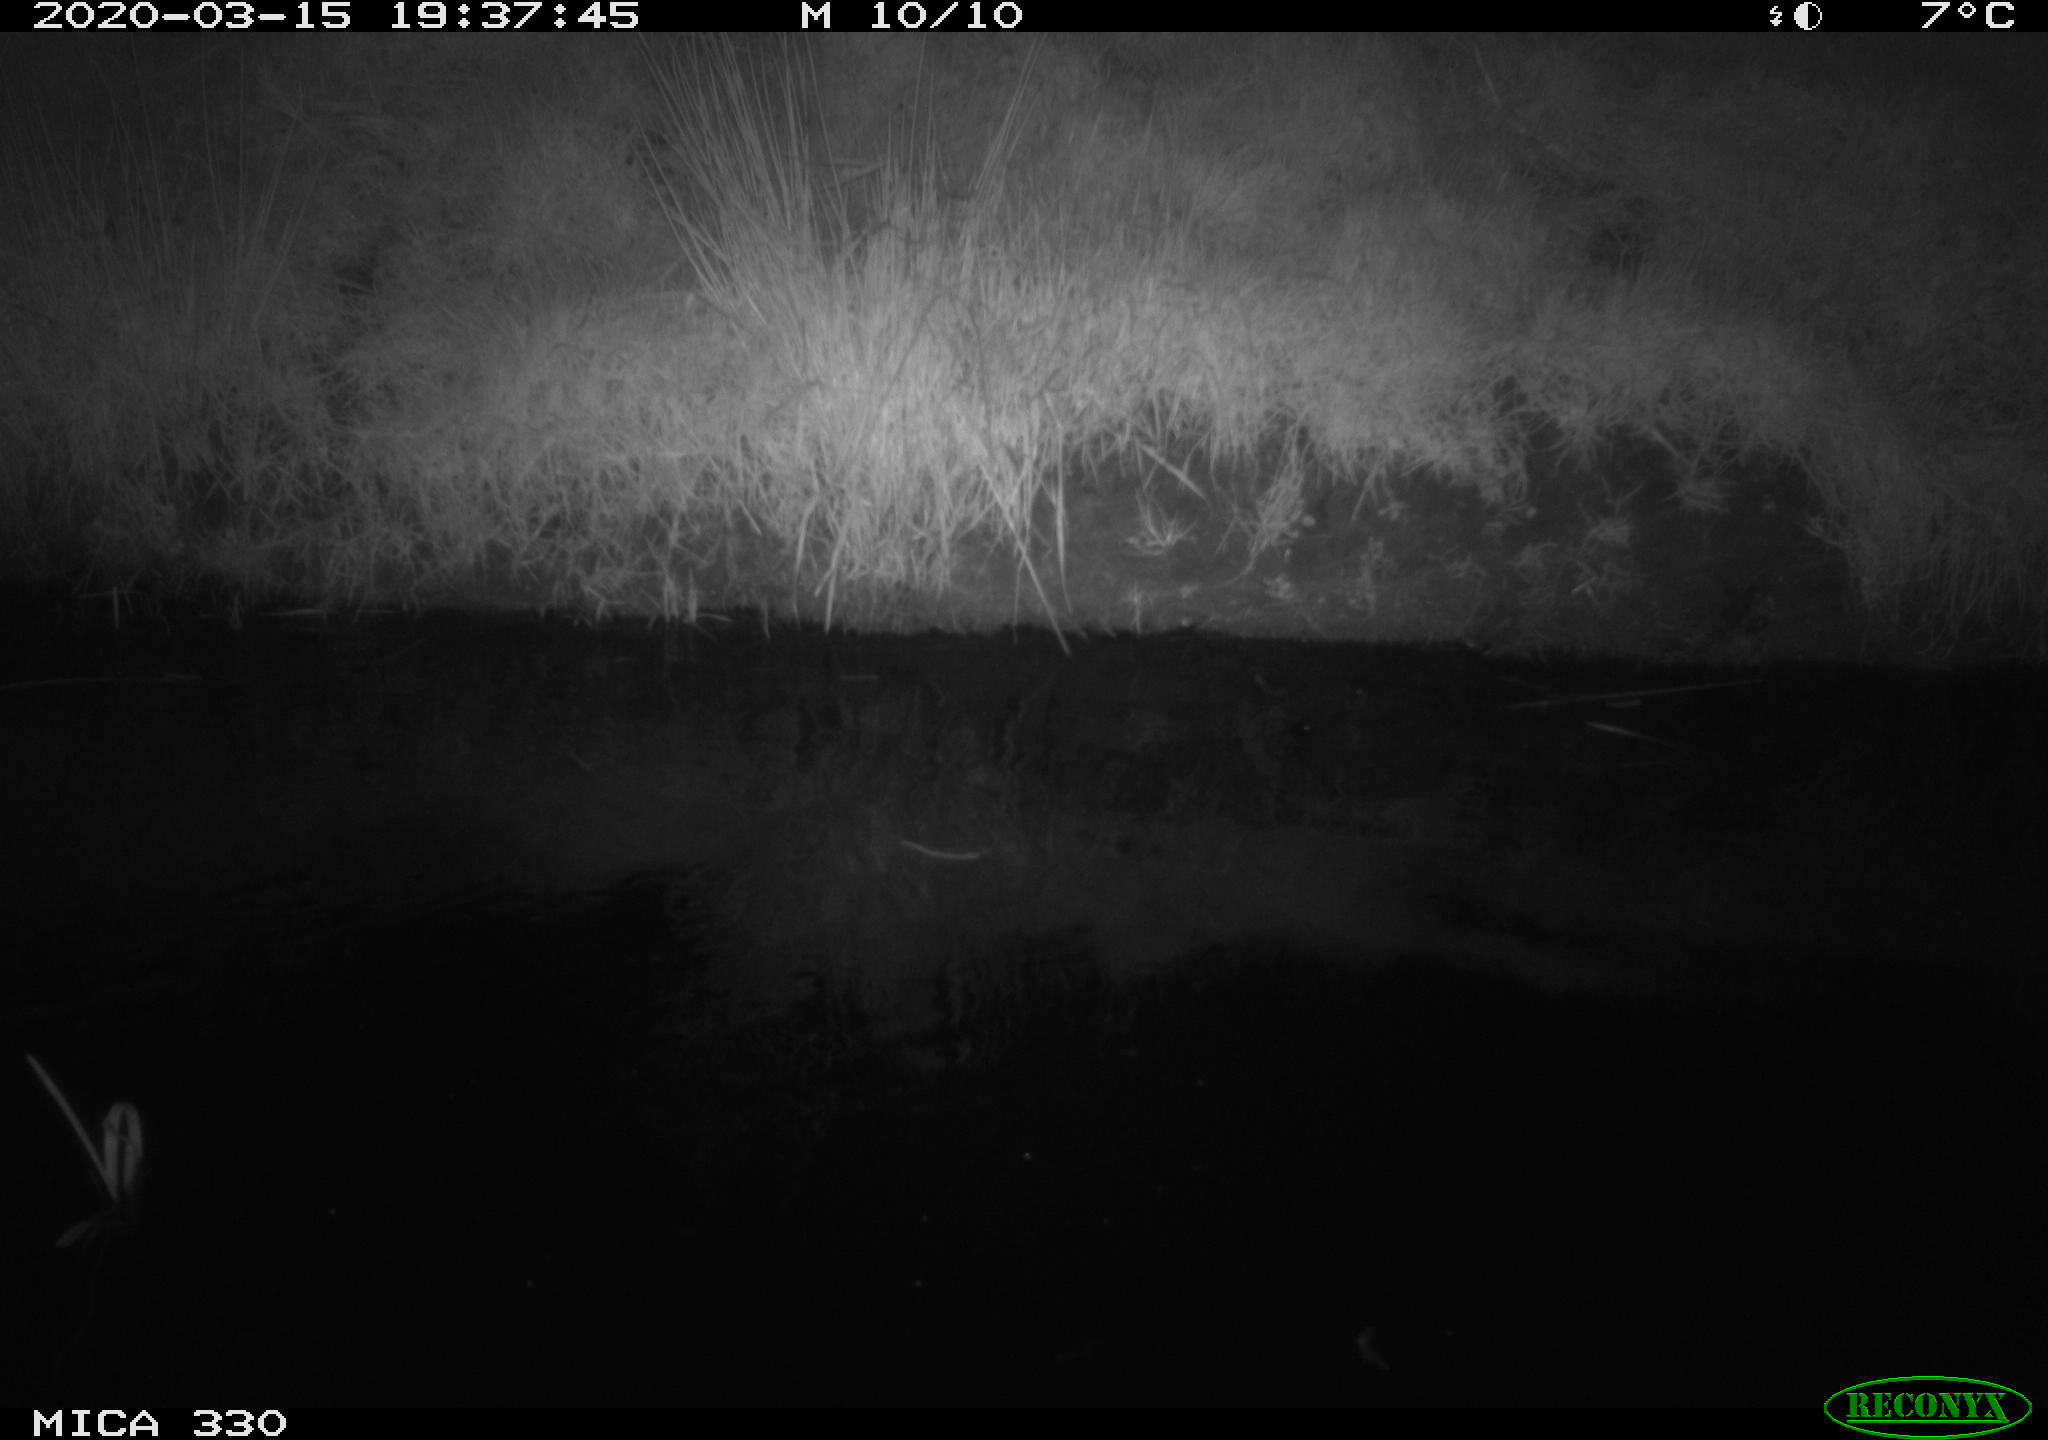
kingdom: Animalia
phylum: Chordata
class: Aves
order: Anseriformes
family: Anatidae
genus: Anas
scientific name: Anas platyrhynchos
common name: Mallard
